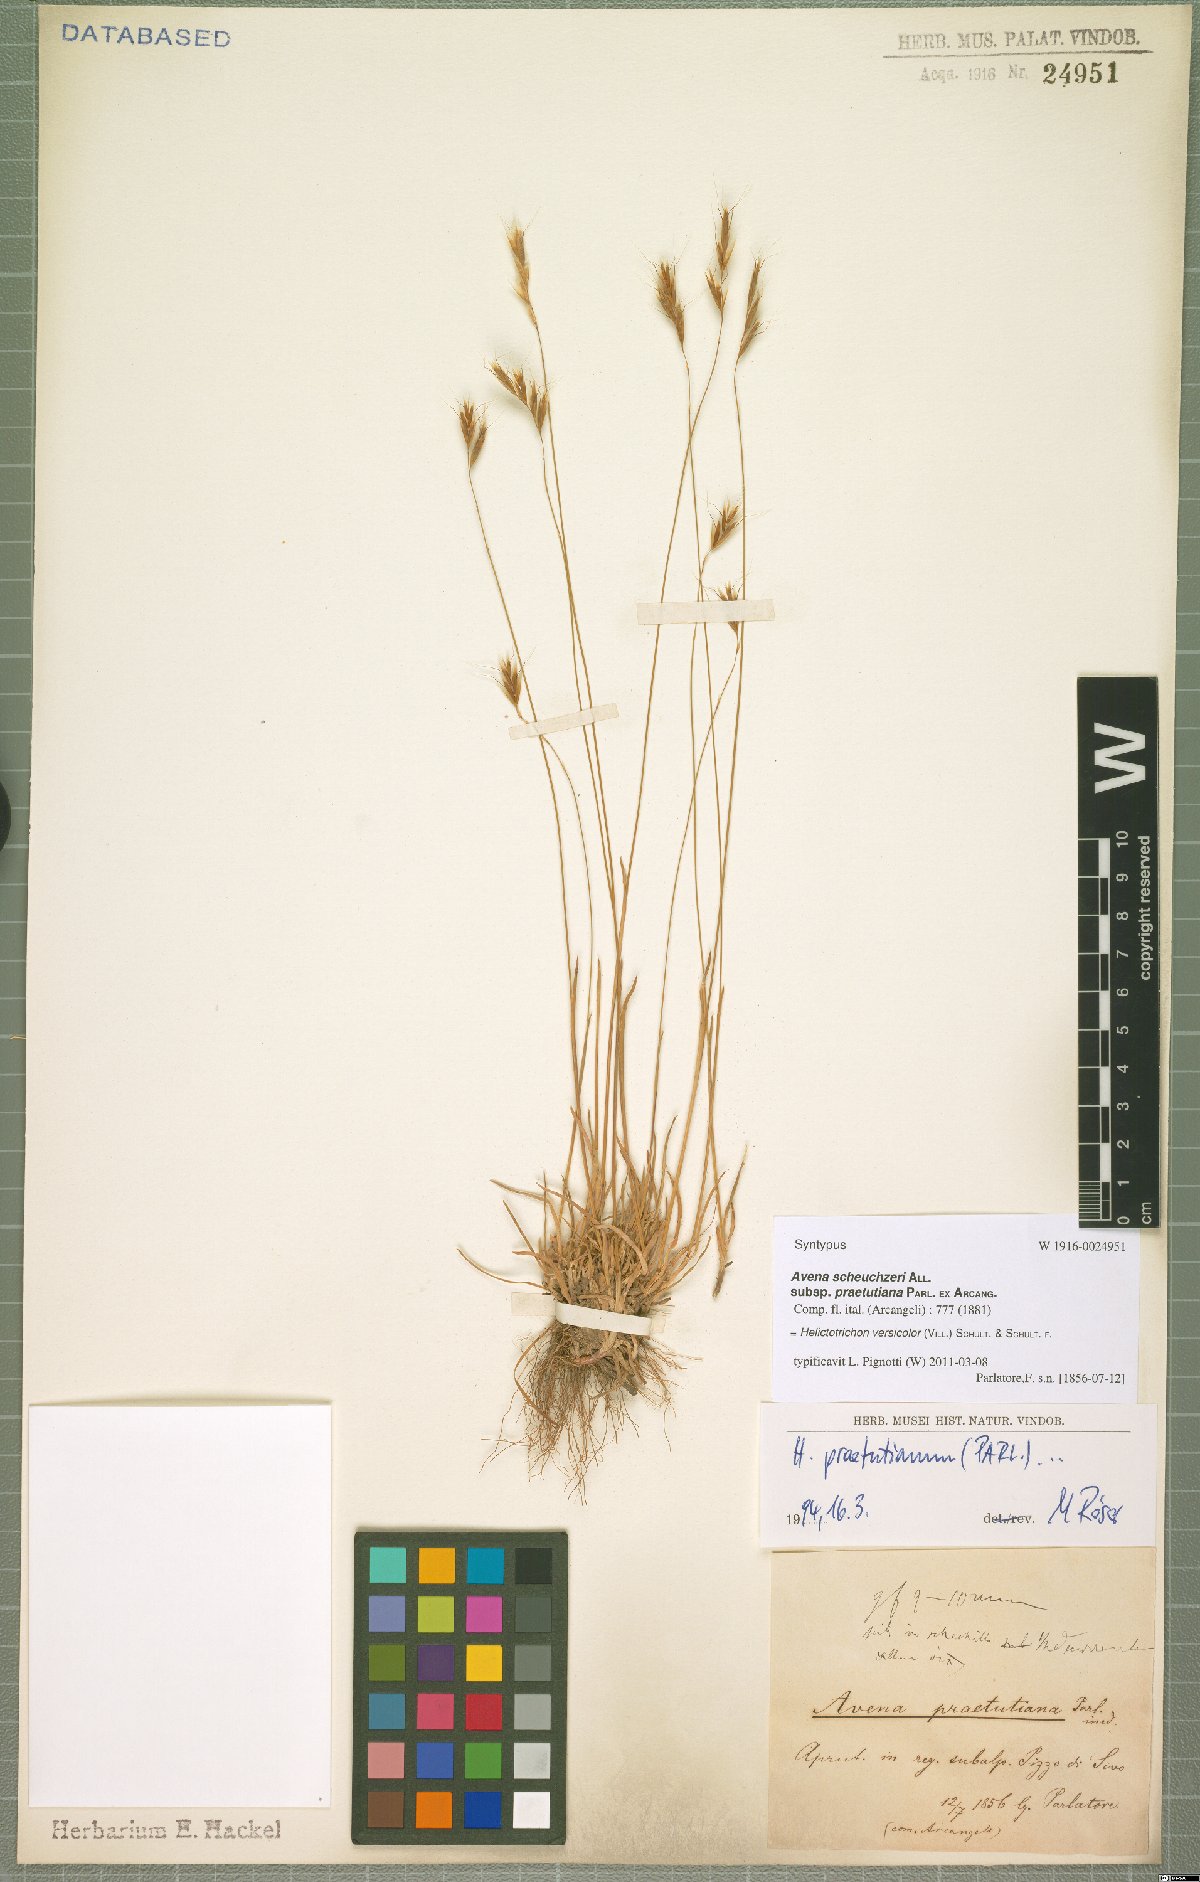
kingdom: Plantae
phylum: Tracheophyta
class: Liliopsida
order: Poales
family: Poaceae
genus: Helictochloa
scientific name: Helictochloa versicolor
